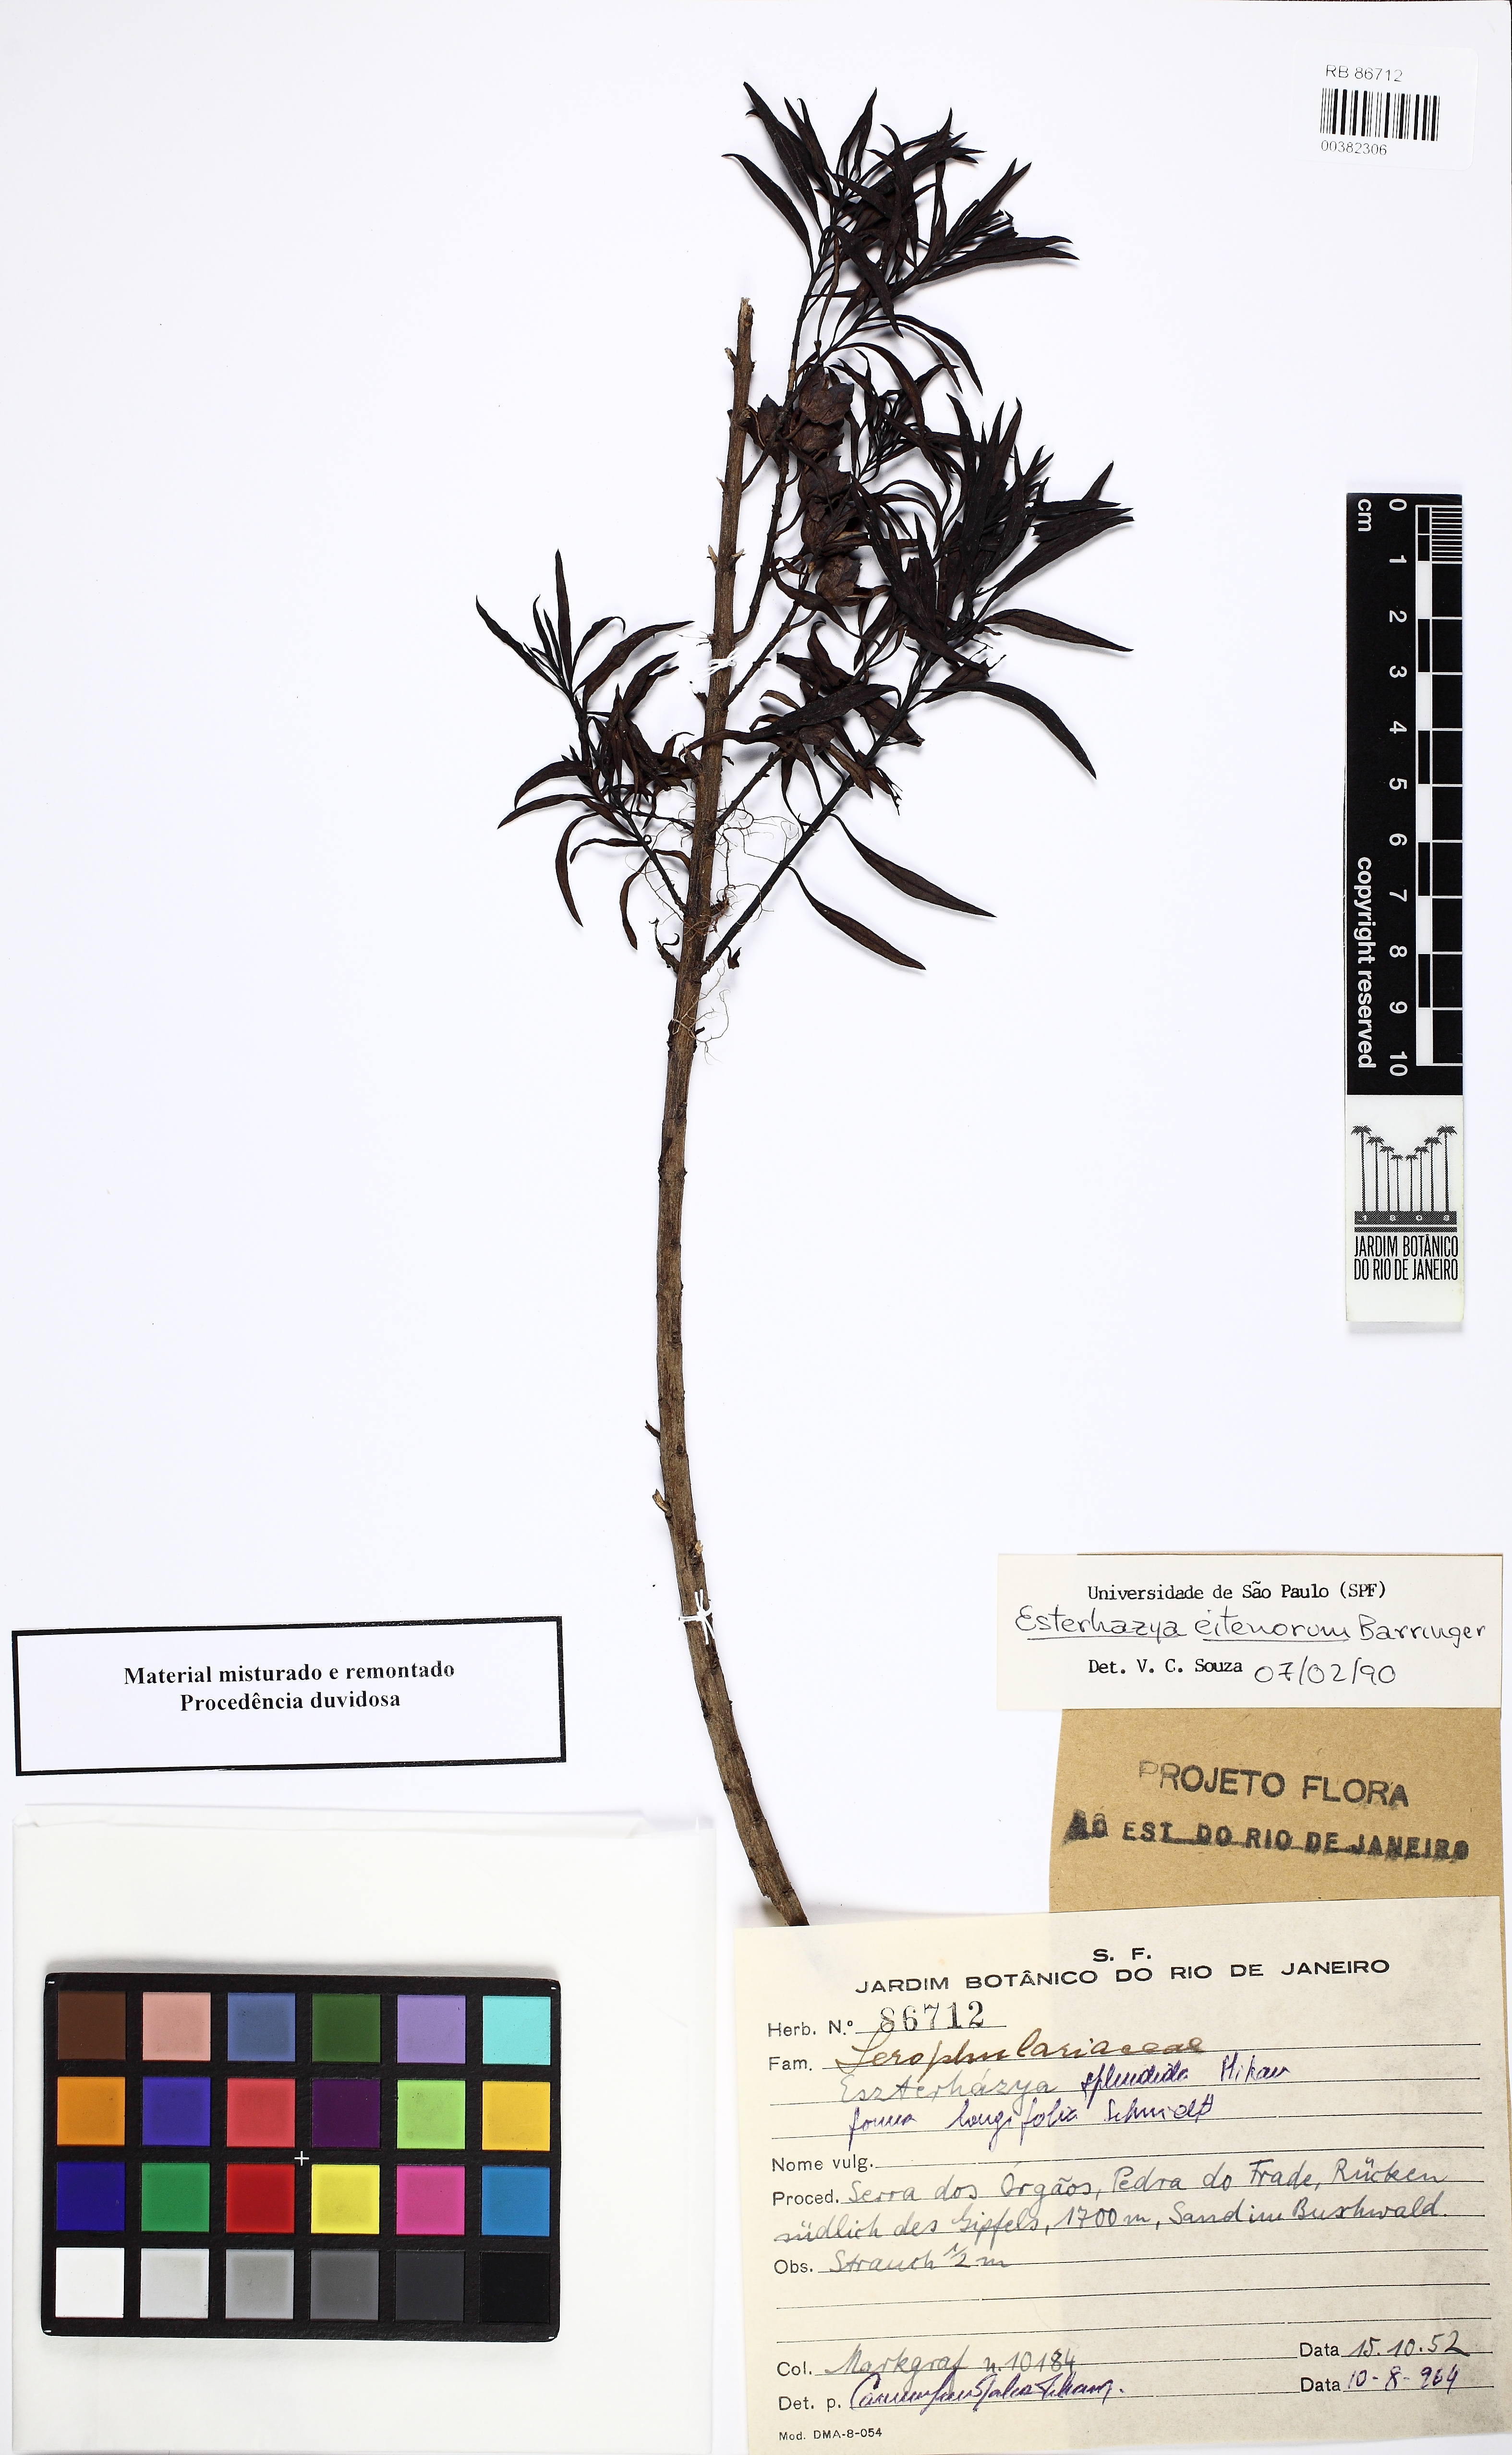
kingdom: Plantae
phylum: Tracheophyta
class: Magnoliopsida
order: Lamiales
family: Scrophulariaceae
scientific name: Scrophulariaceae
